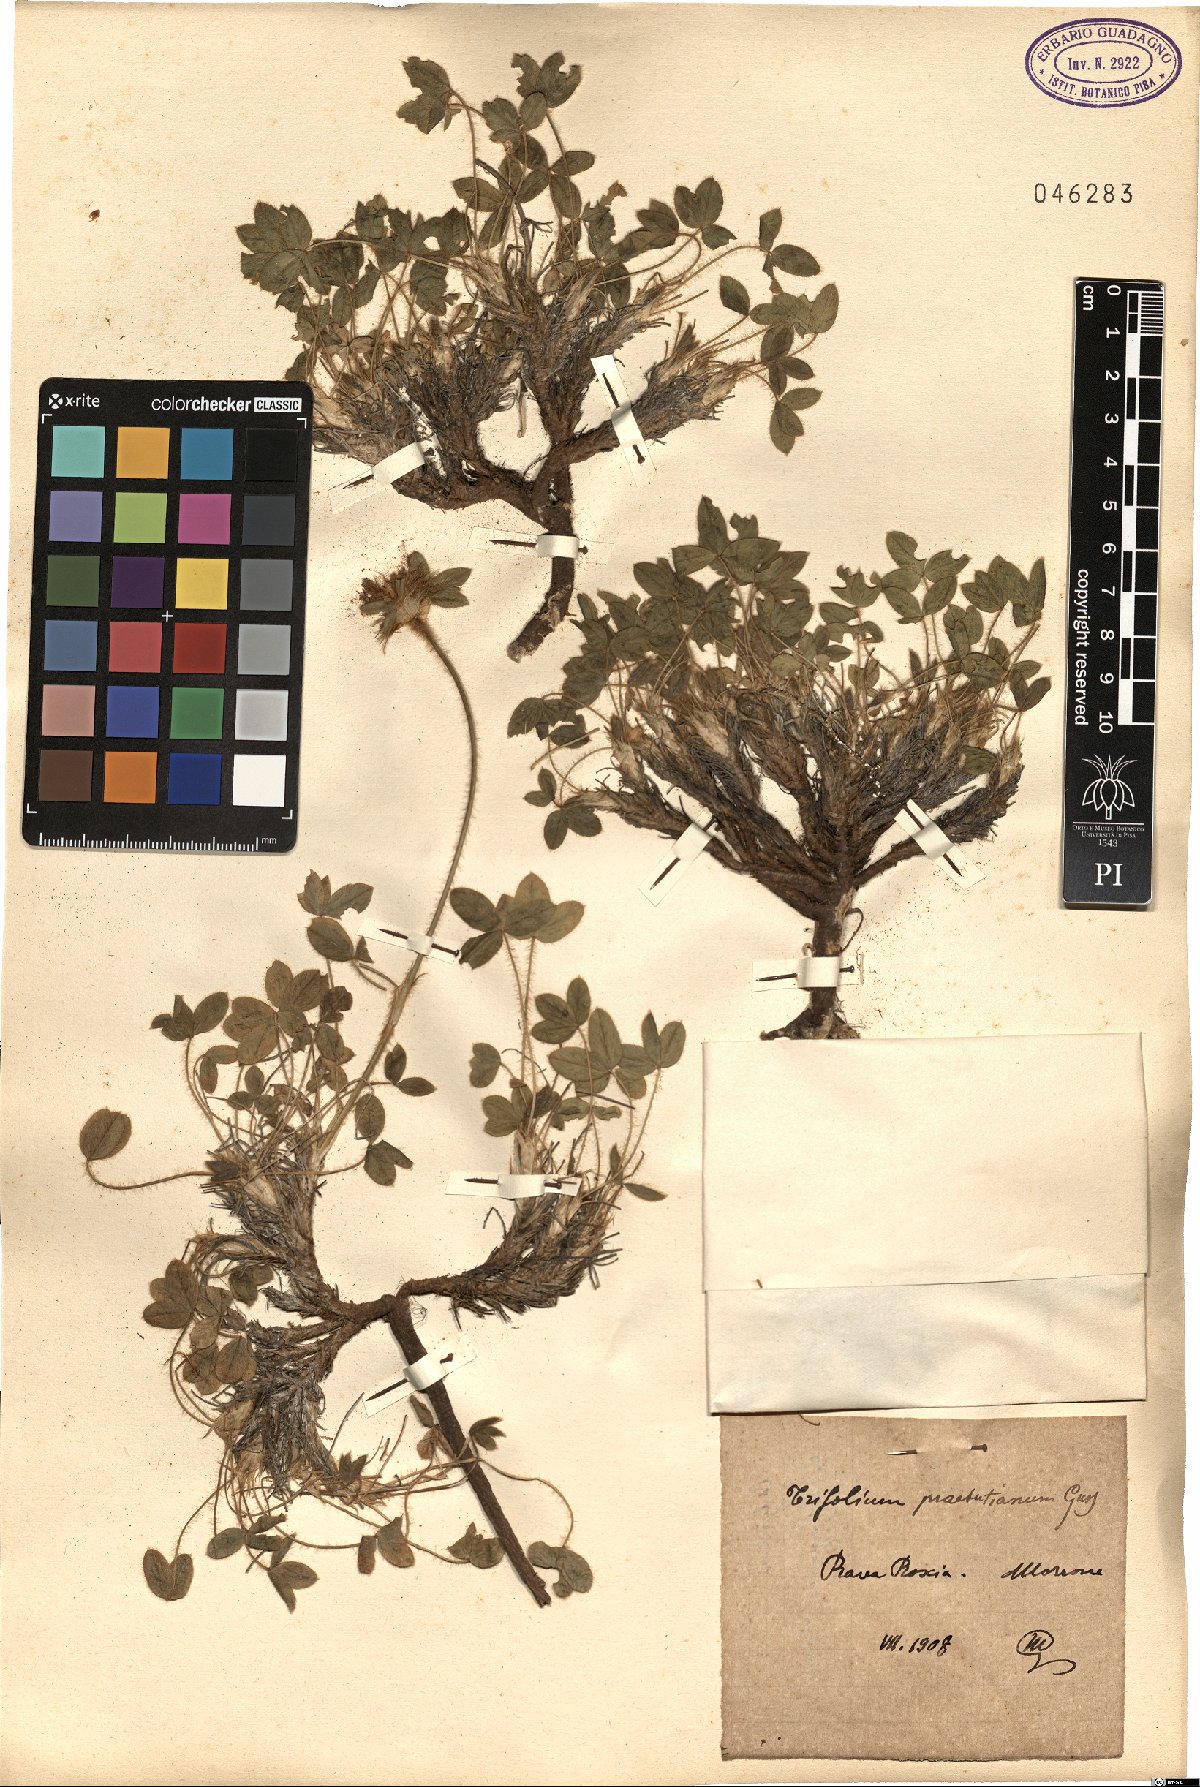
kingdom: Plantae
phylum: Tracheophyta
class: Magnoliopsida
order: Fabales
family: Fabaceae
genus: Trifolium
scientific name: Trifolium noricum
